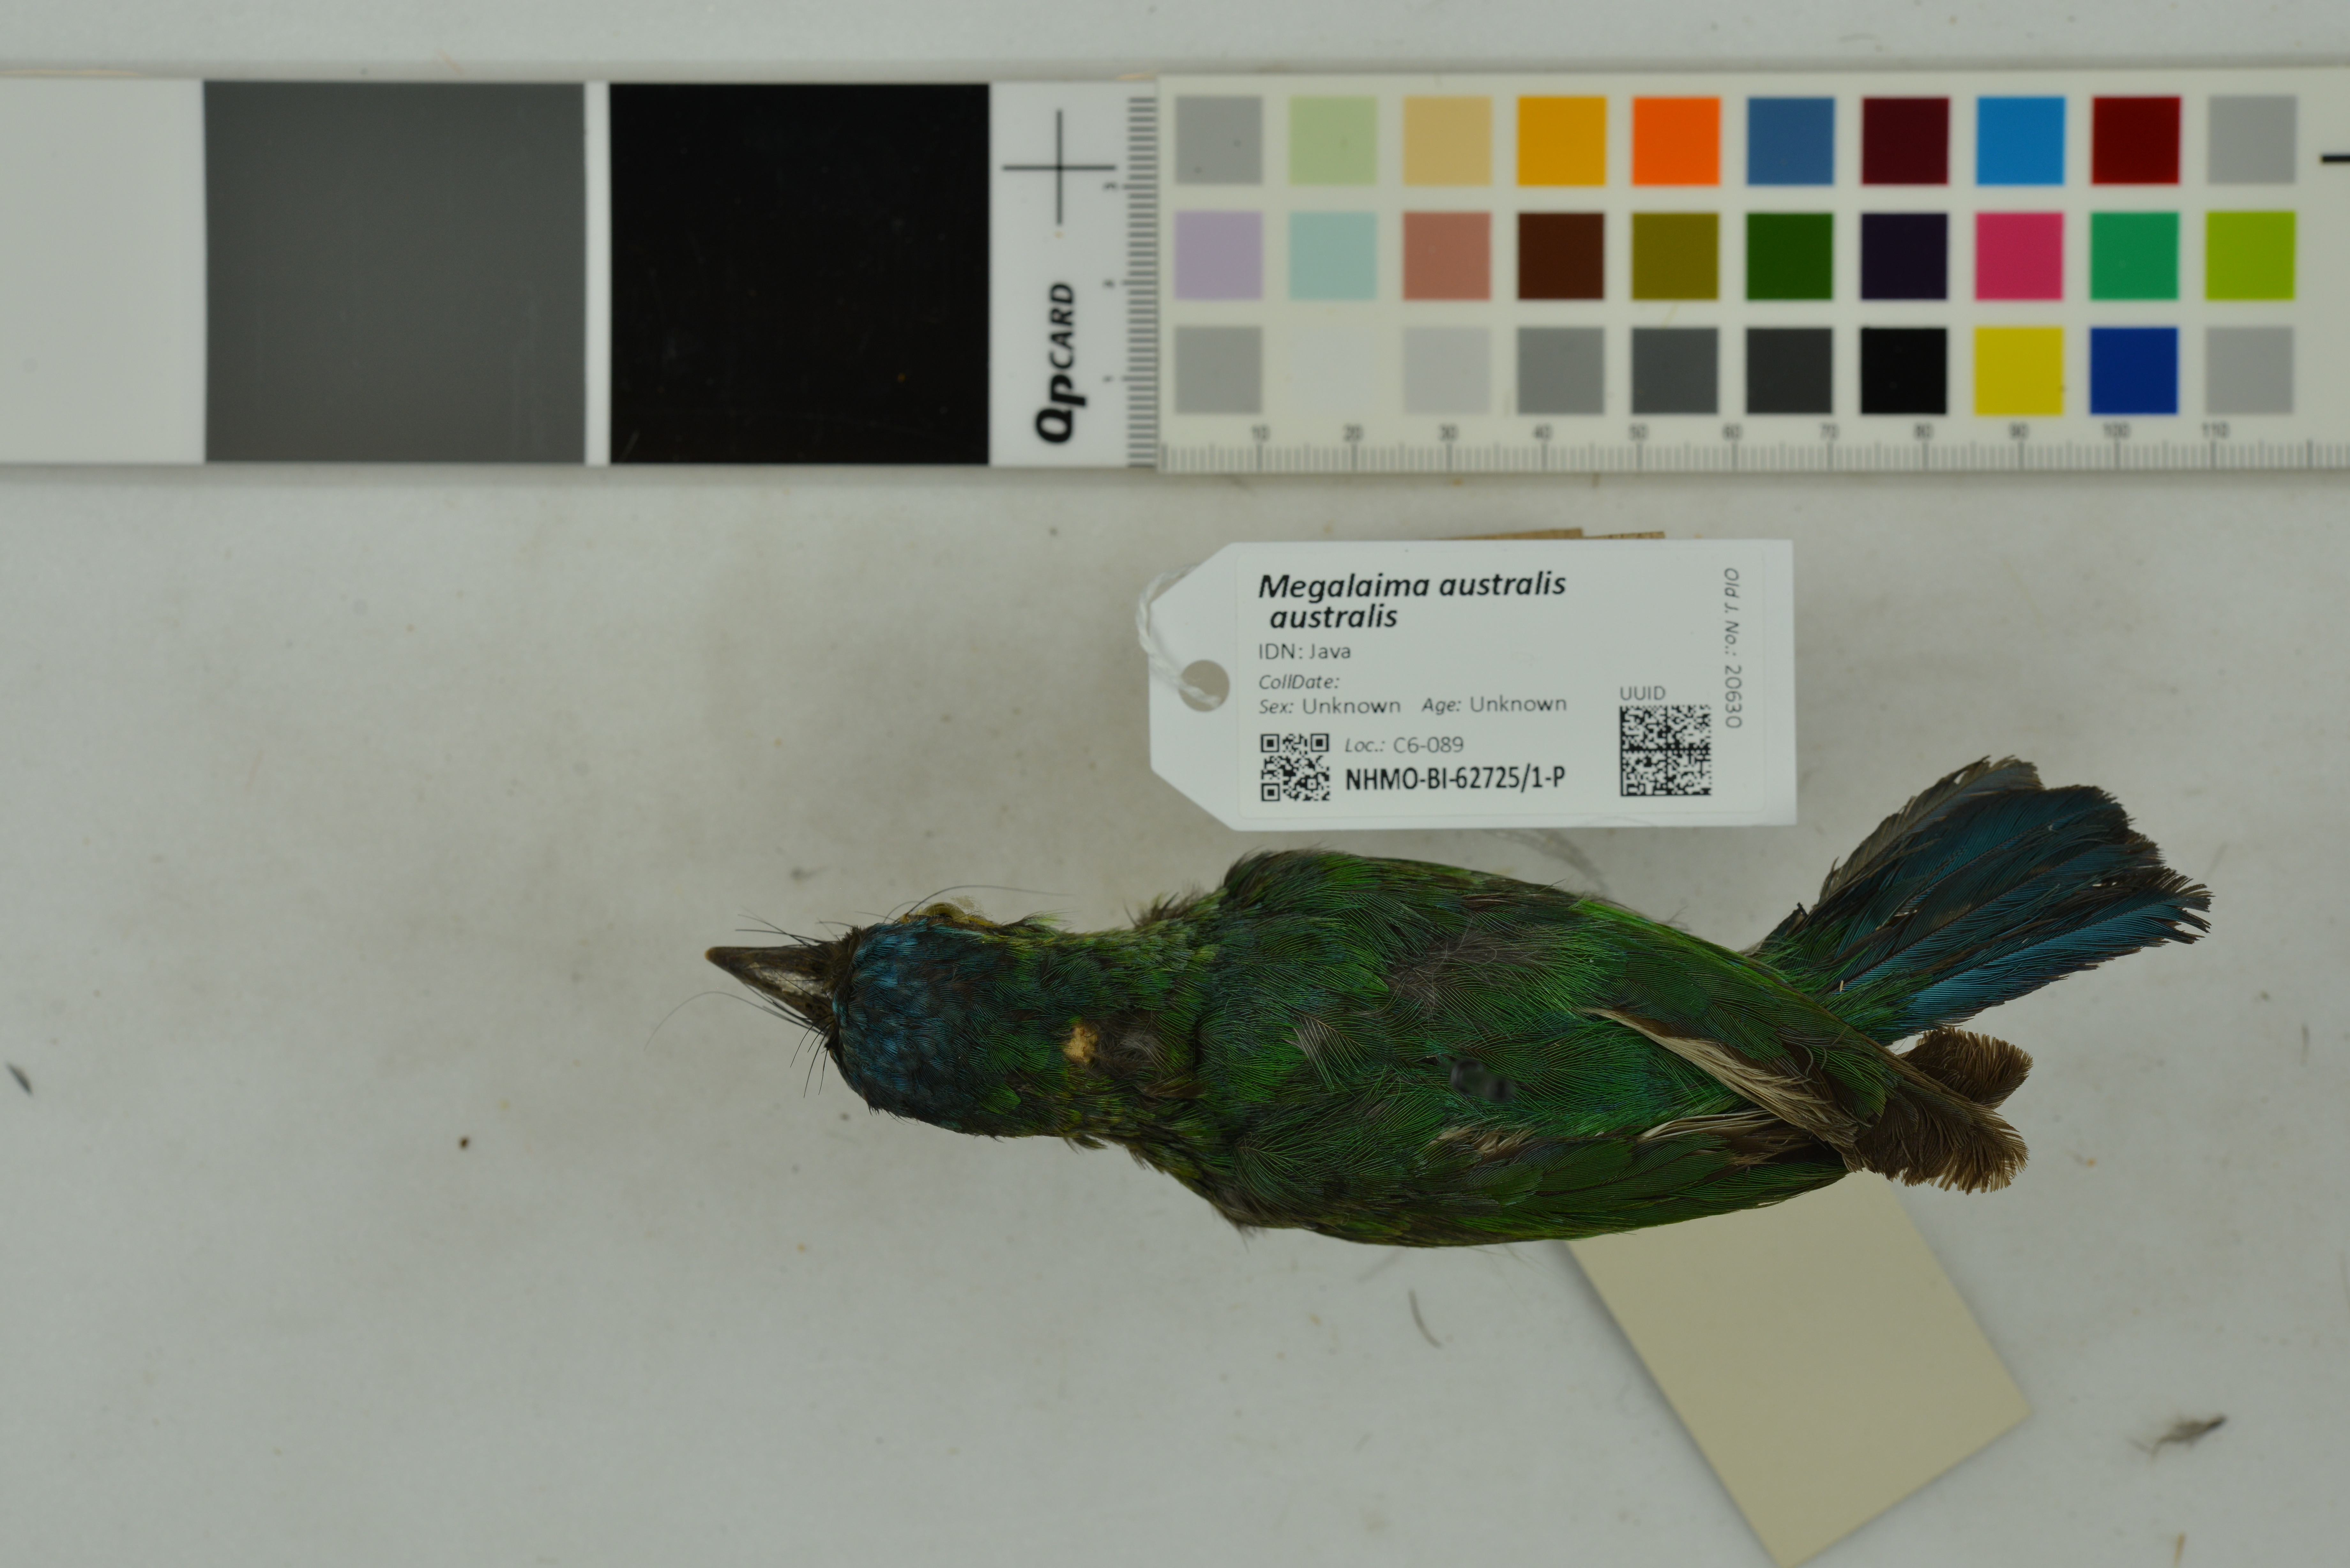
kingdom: Animalia
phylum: Chordata
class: Aves
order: Piciformes
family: Megalaimidae
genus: Psilopogon
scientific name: Psilopogon australis
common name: Yellow-eared barbet
